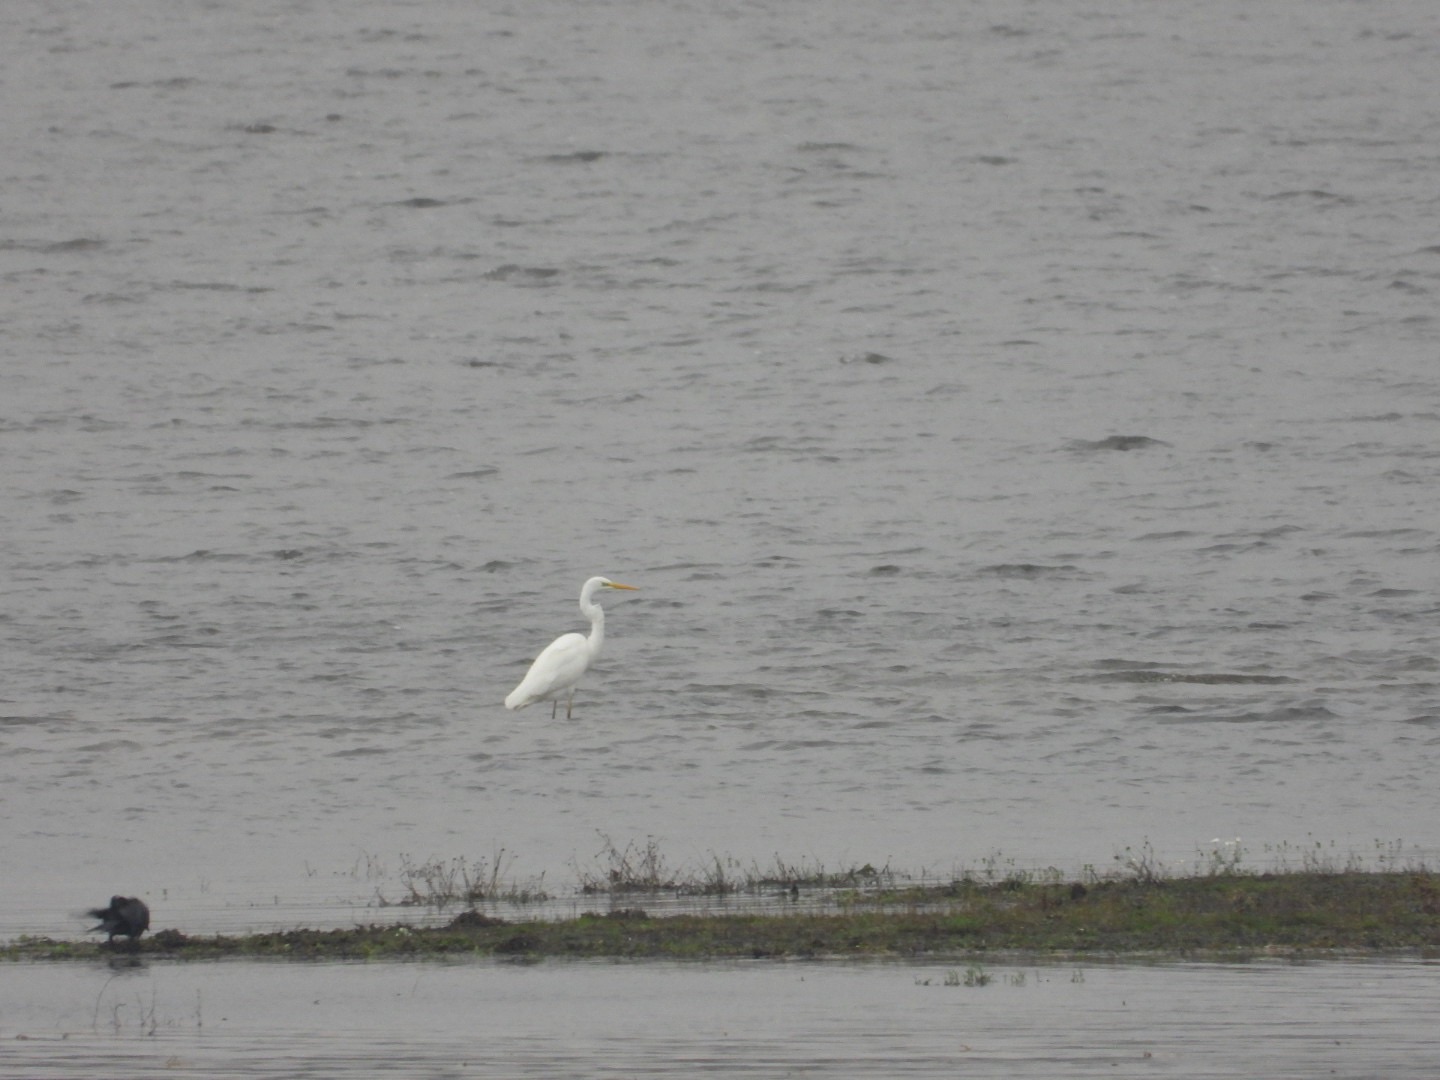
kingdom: Animalia
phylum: Chordata
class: Aves
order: Pelecaniformes
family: Ardeidae
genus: Ardea
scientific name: Ardea alba
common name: Sølvhejre
